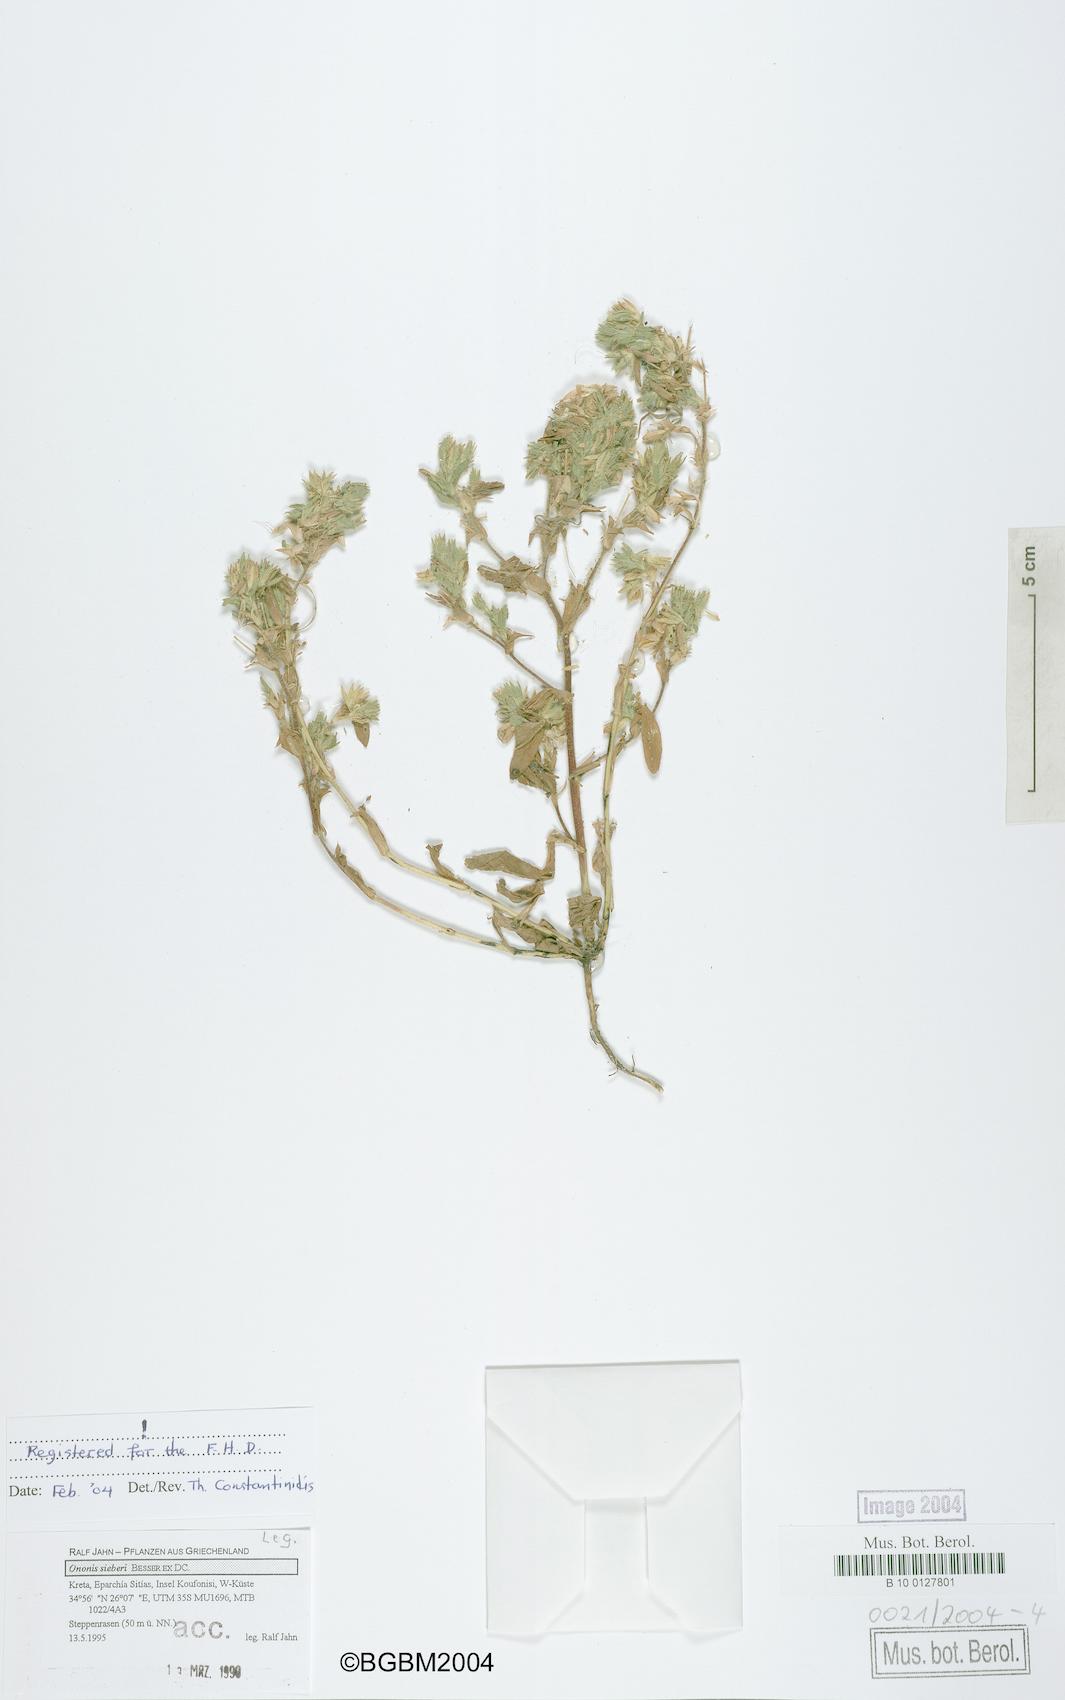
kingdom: Plantae
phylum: Tracheophyta
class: Magnoliopsida
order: Fabales
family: Fabaceae
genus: Ononis
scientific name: Ononis sieberi
